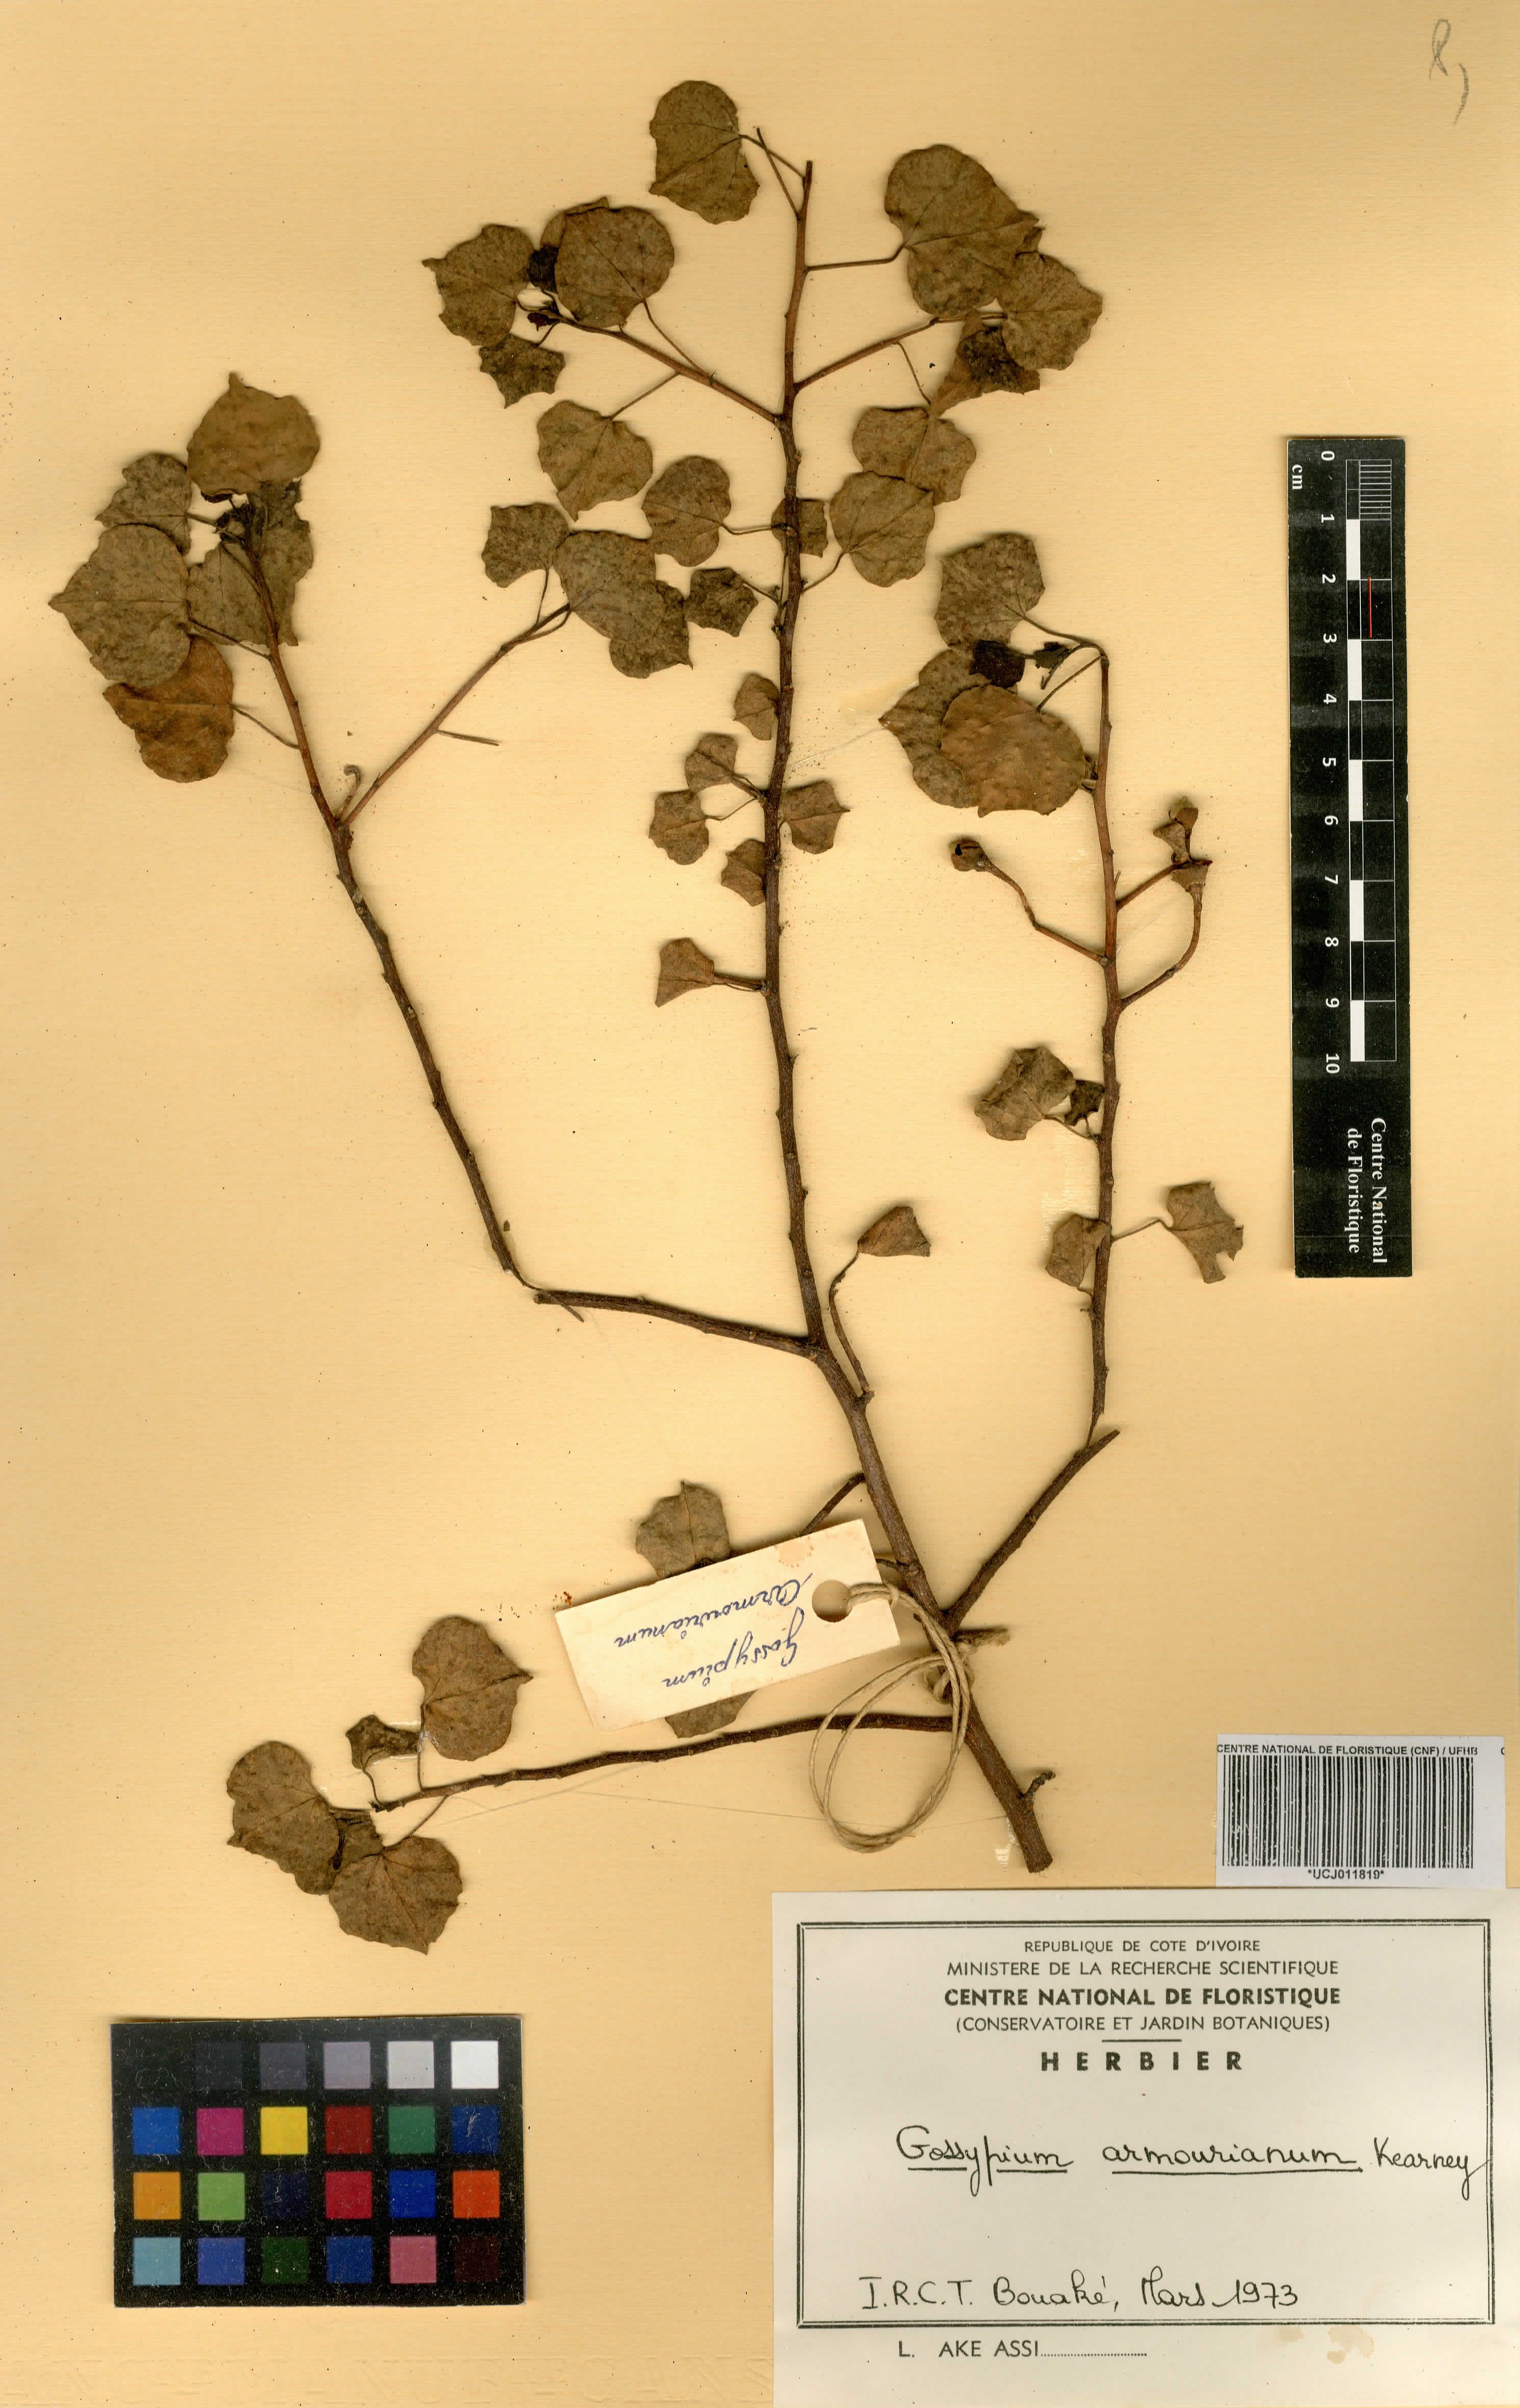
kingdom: Plantae
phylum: Tracheophyta
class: Magnoliopsida
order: Malvales
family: Malvaceae
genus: Gossypium
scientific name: Gossypium armourianum
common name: Wild cotton
